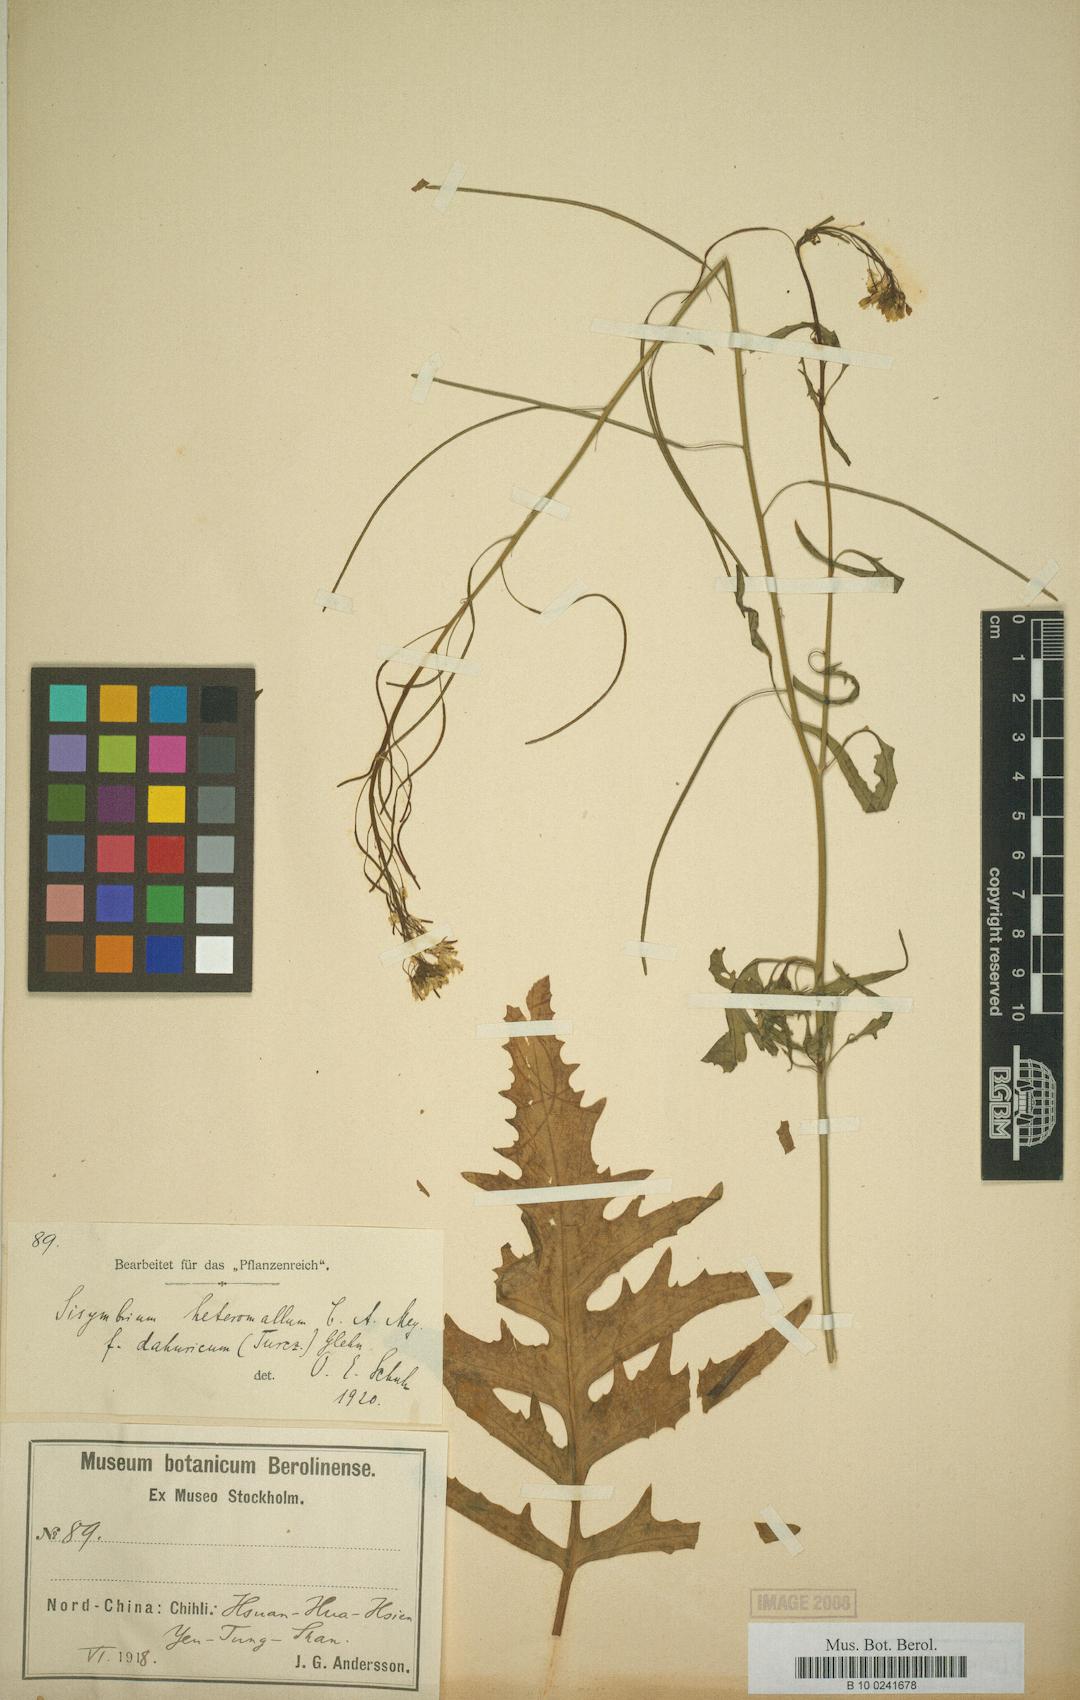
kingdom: Plantae
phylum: Tracheophyta
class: Magnoliopsida
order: Brassicales
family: Brassicaceae
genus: Sisymbrium
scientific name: Sisymbrium heteromallum
